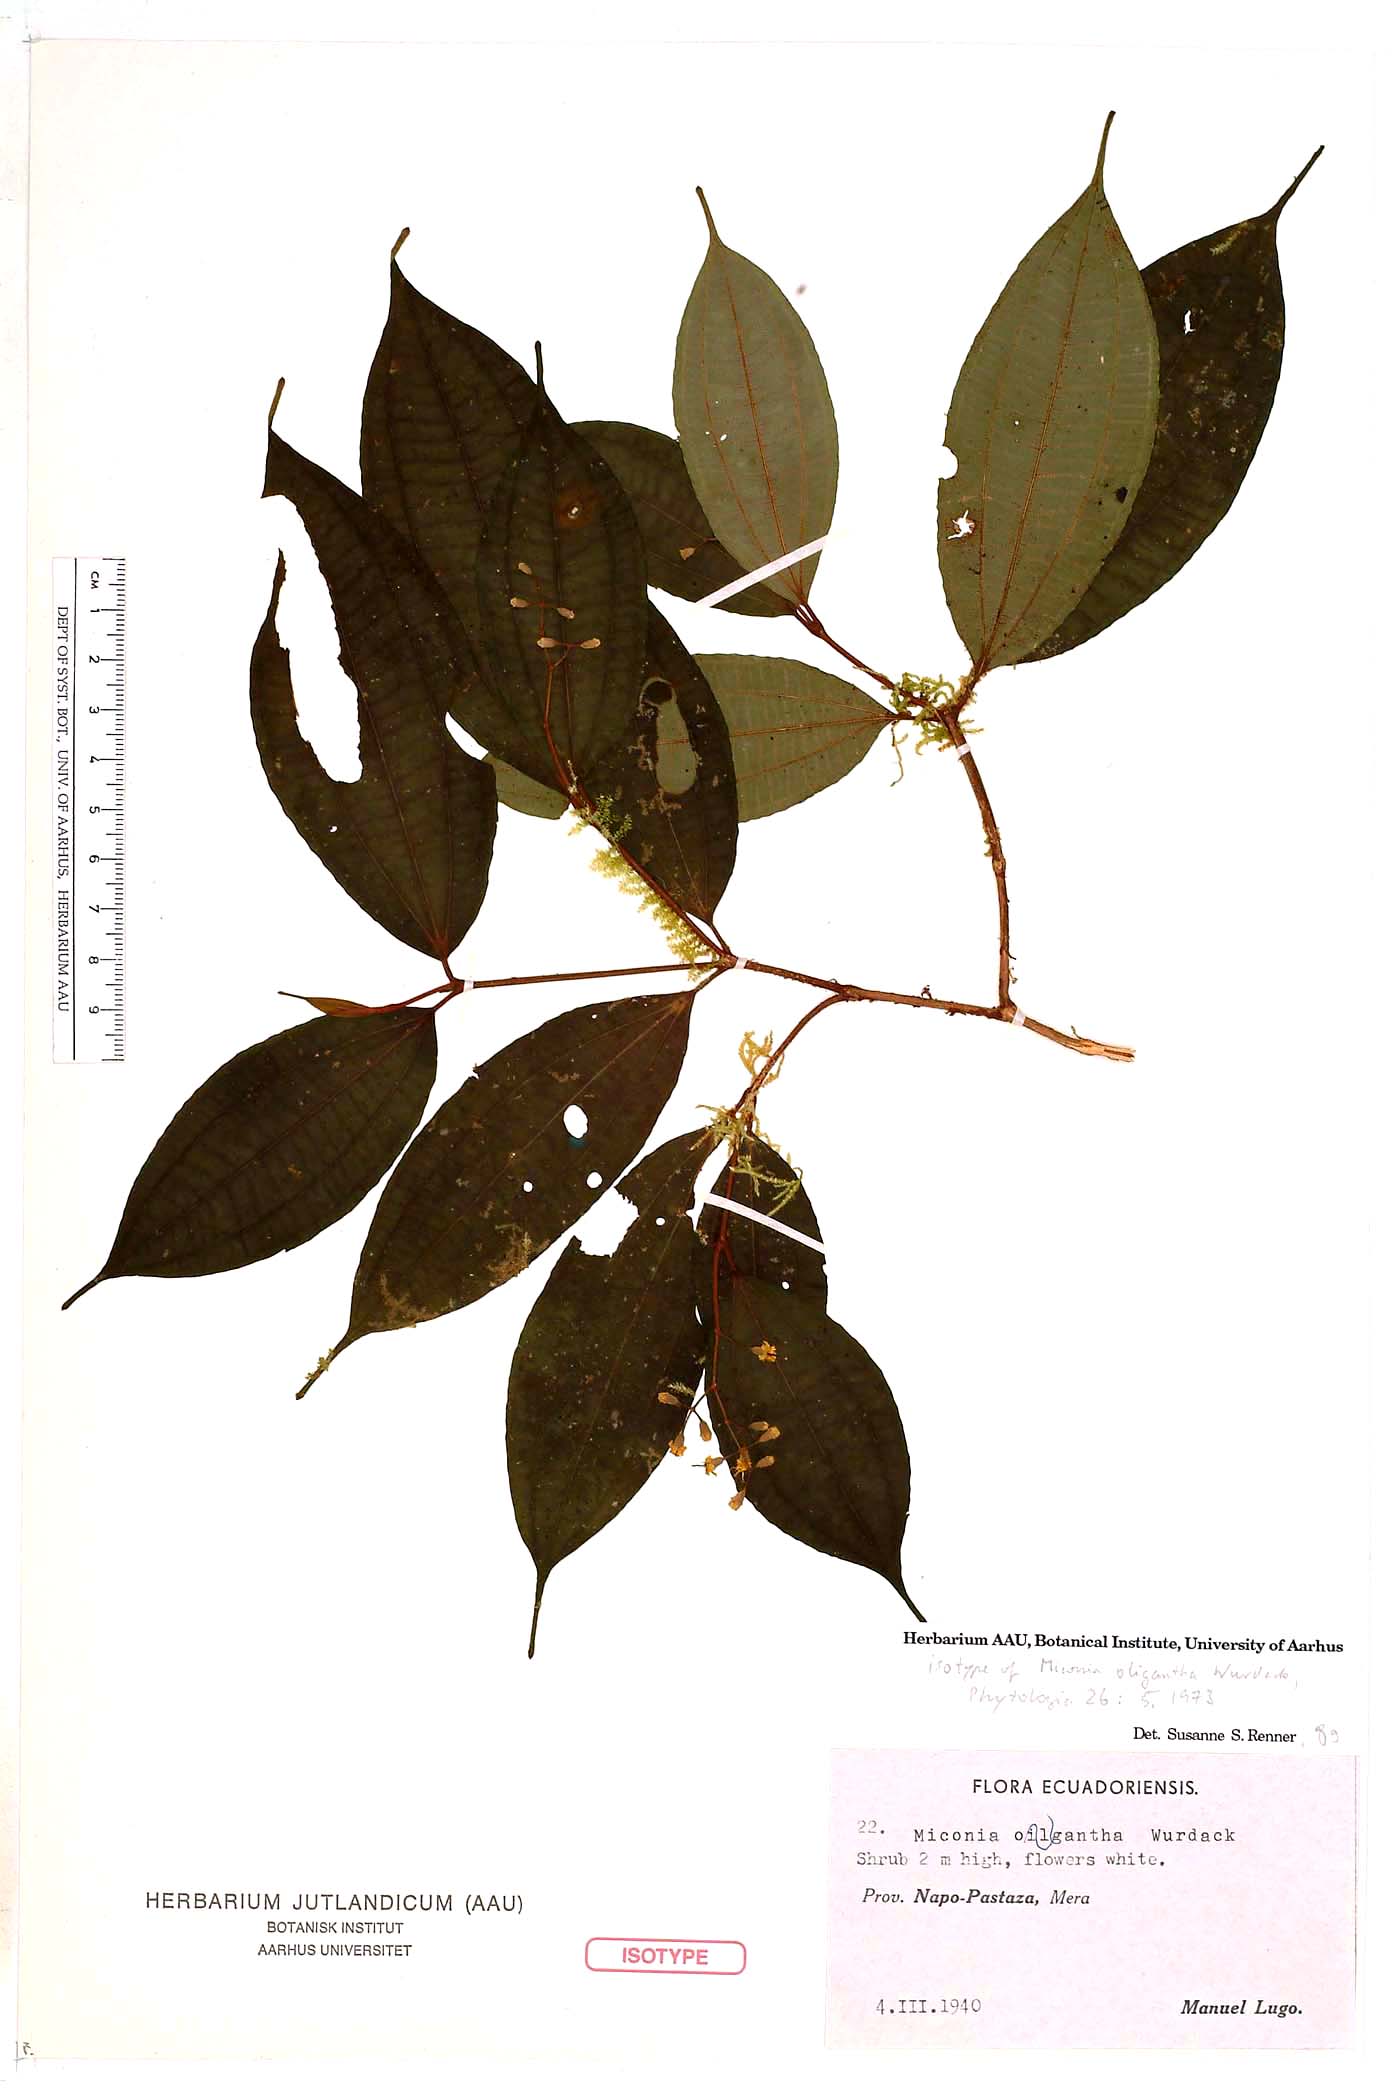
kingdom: Plantae
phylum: Tracheophyta
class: Magnoliopsida
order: Myrtales
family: Melastomataceae
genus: Miconia
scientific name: Miconia oligantha
